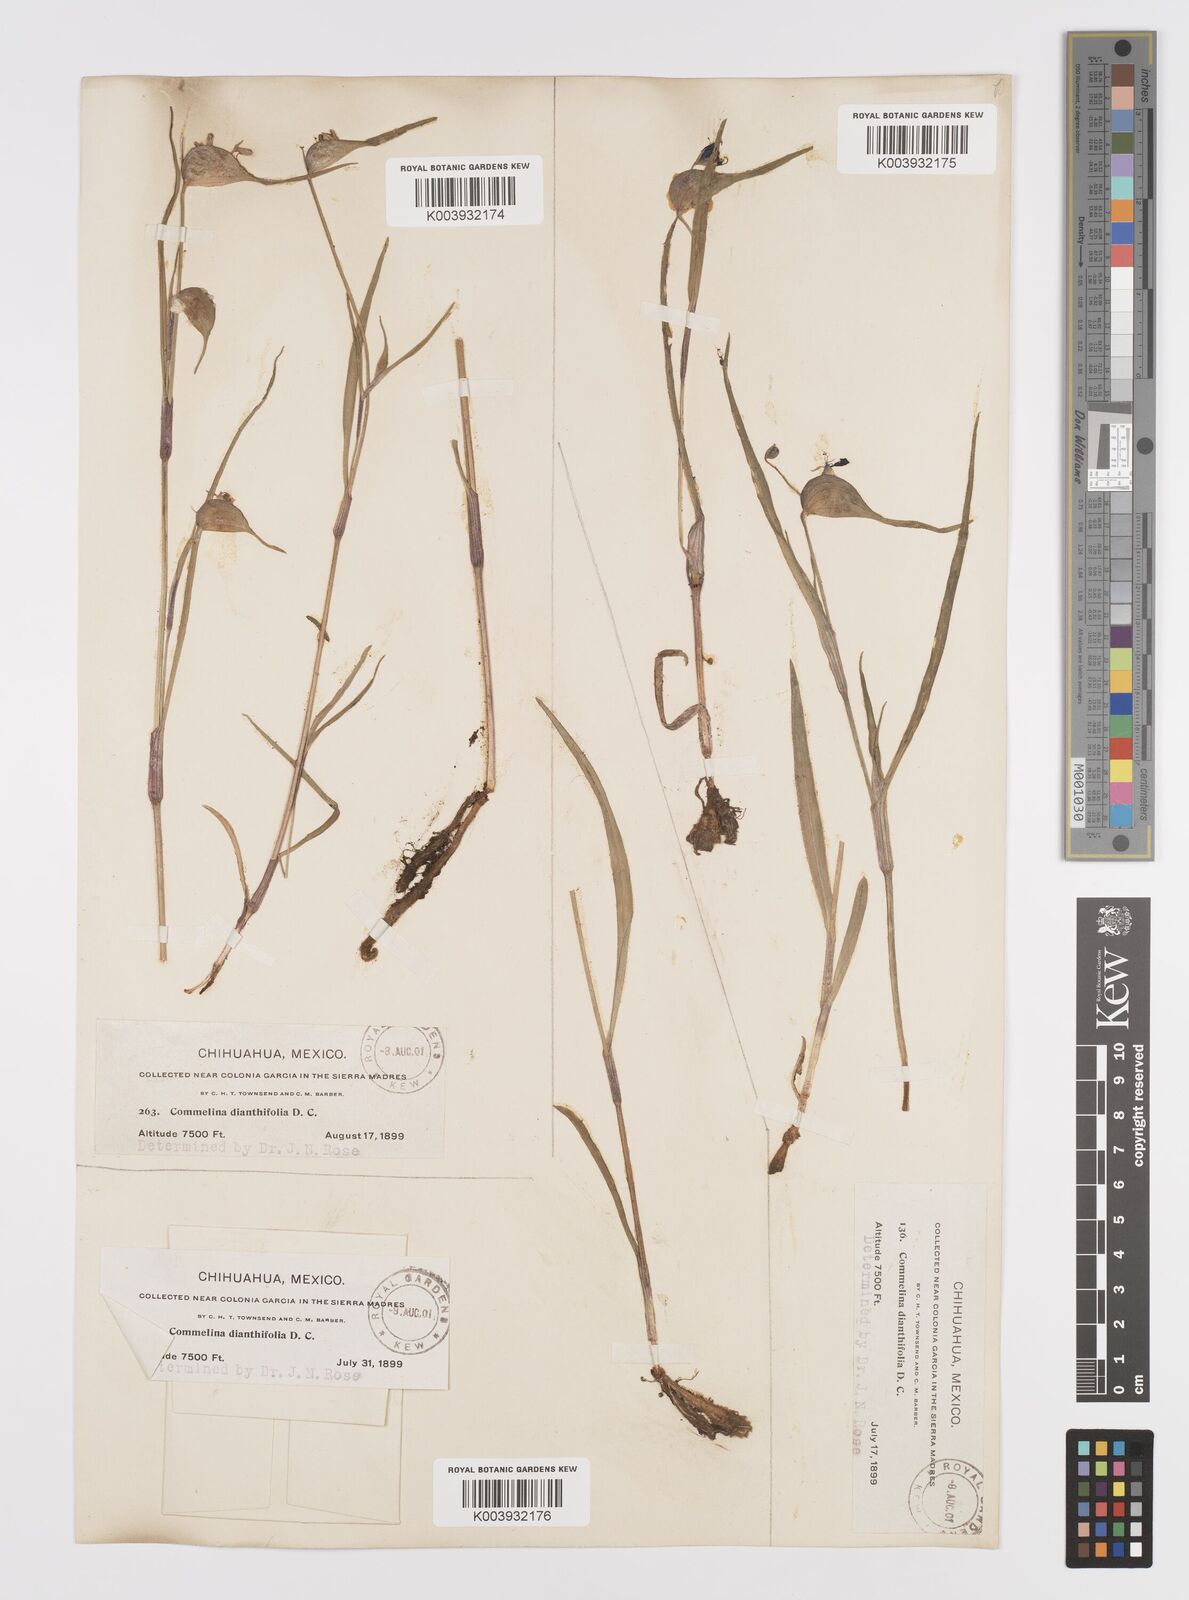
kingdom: Plantae
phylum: Tracheophyta
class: Liliopsida
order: Commelinales
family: Commelinaceae
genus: Commelina
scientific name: Commelina dianthifolia
